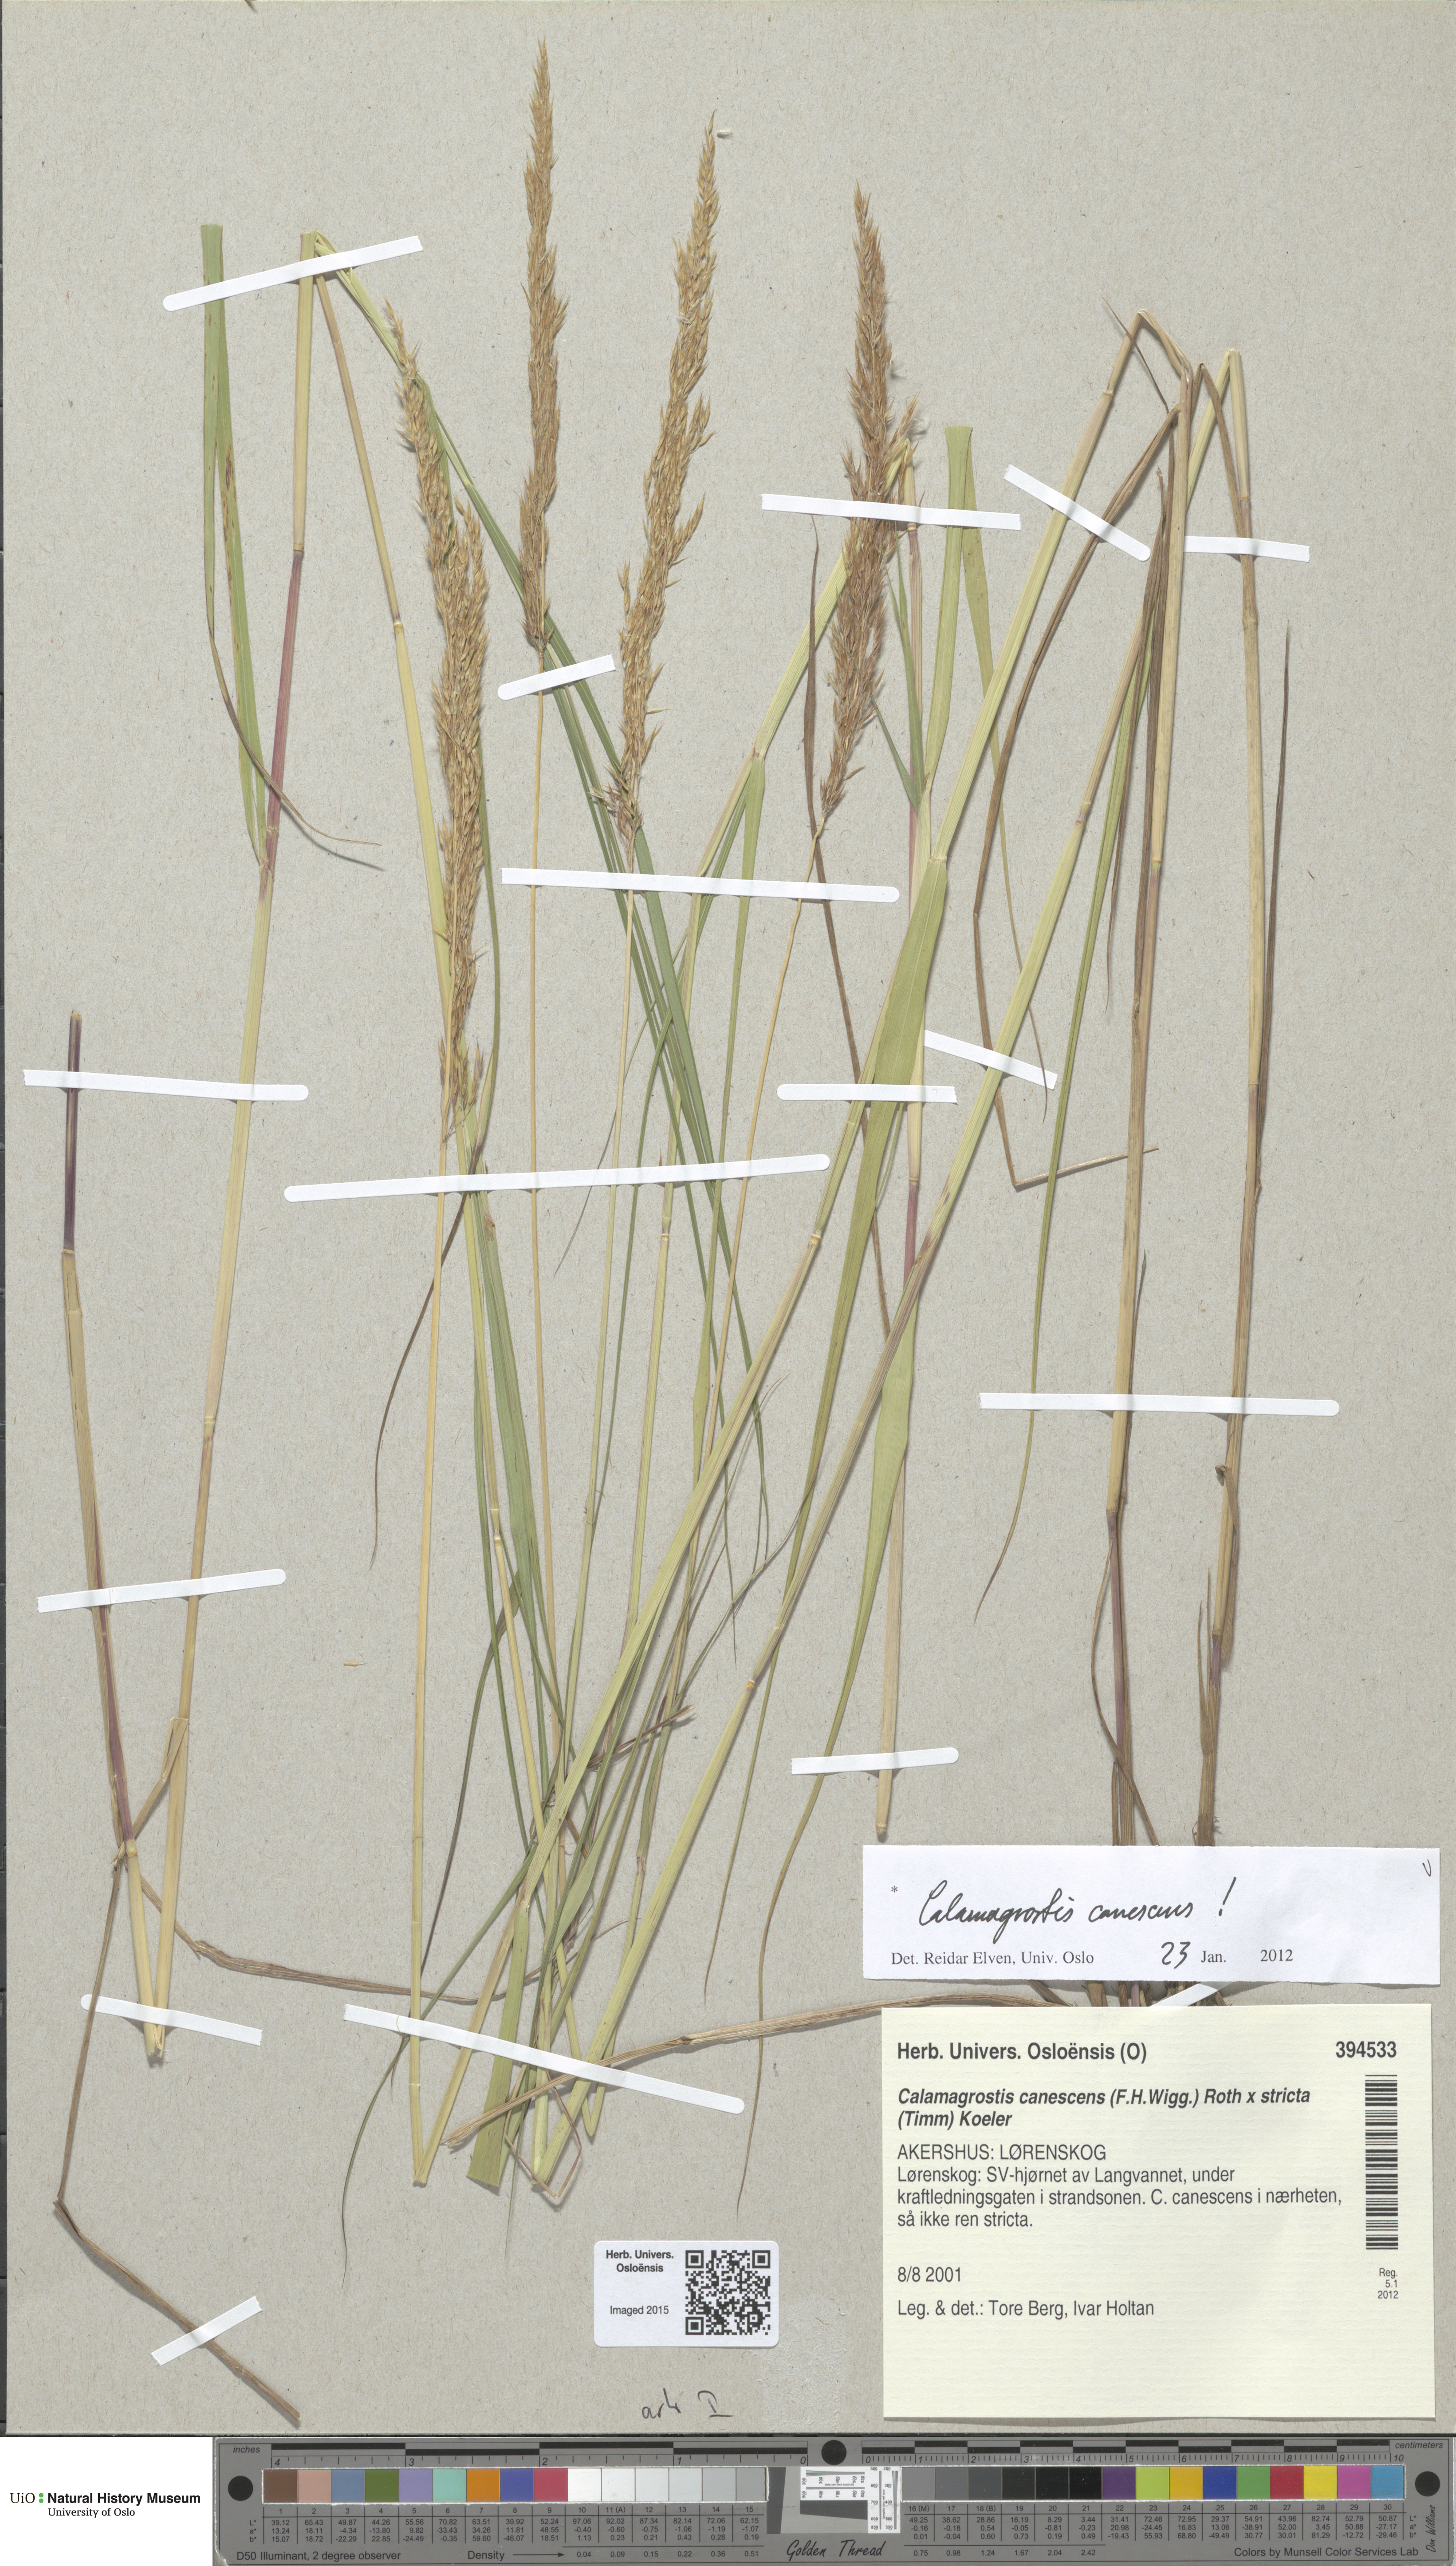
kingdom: Plantae
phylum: Tracheophyta
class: Liliopsida
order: Poales
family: Poaceae
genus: Calamagrostis
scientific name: Calamagrostis canescens
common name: Purple small-reed
